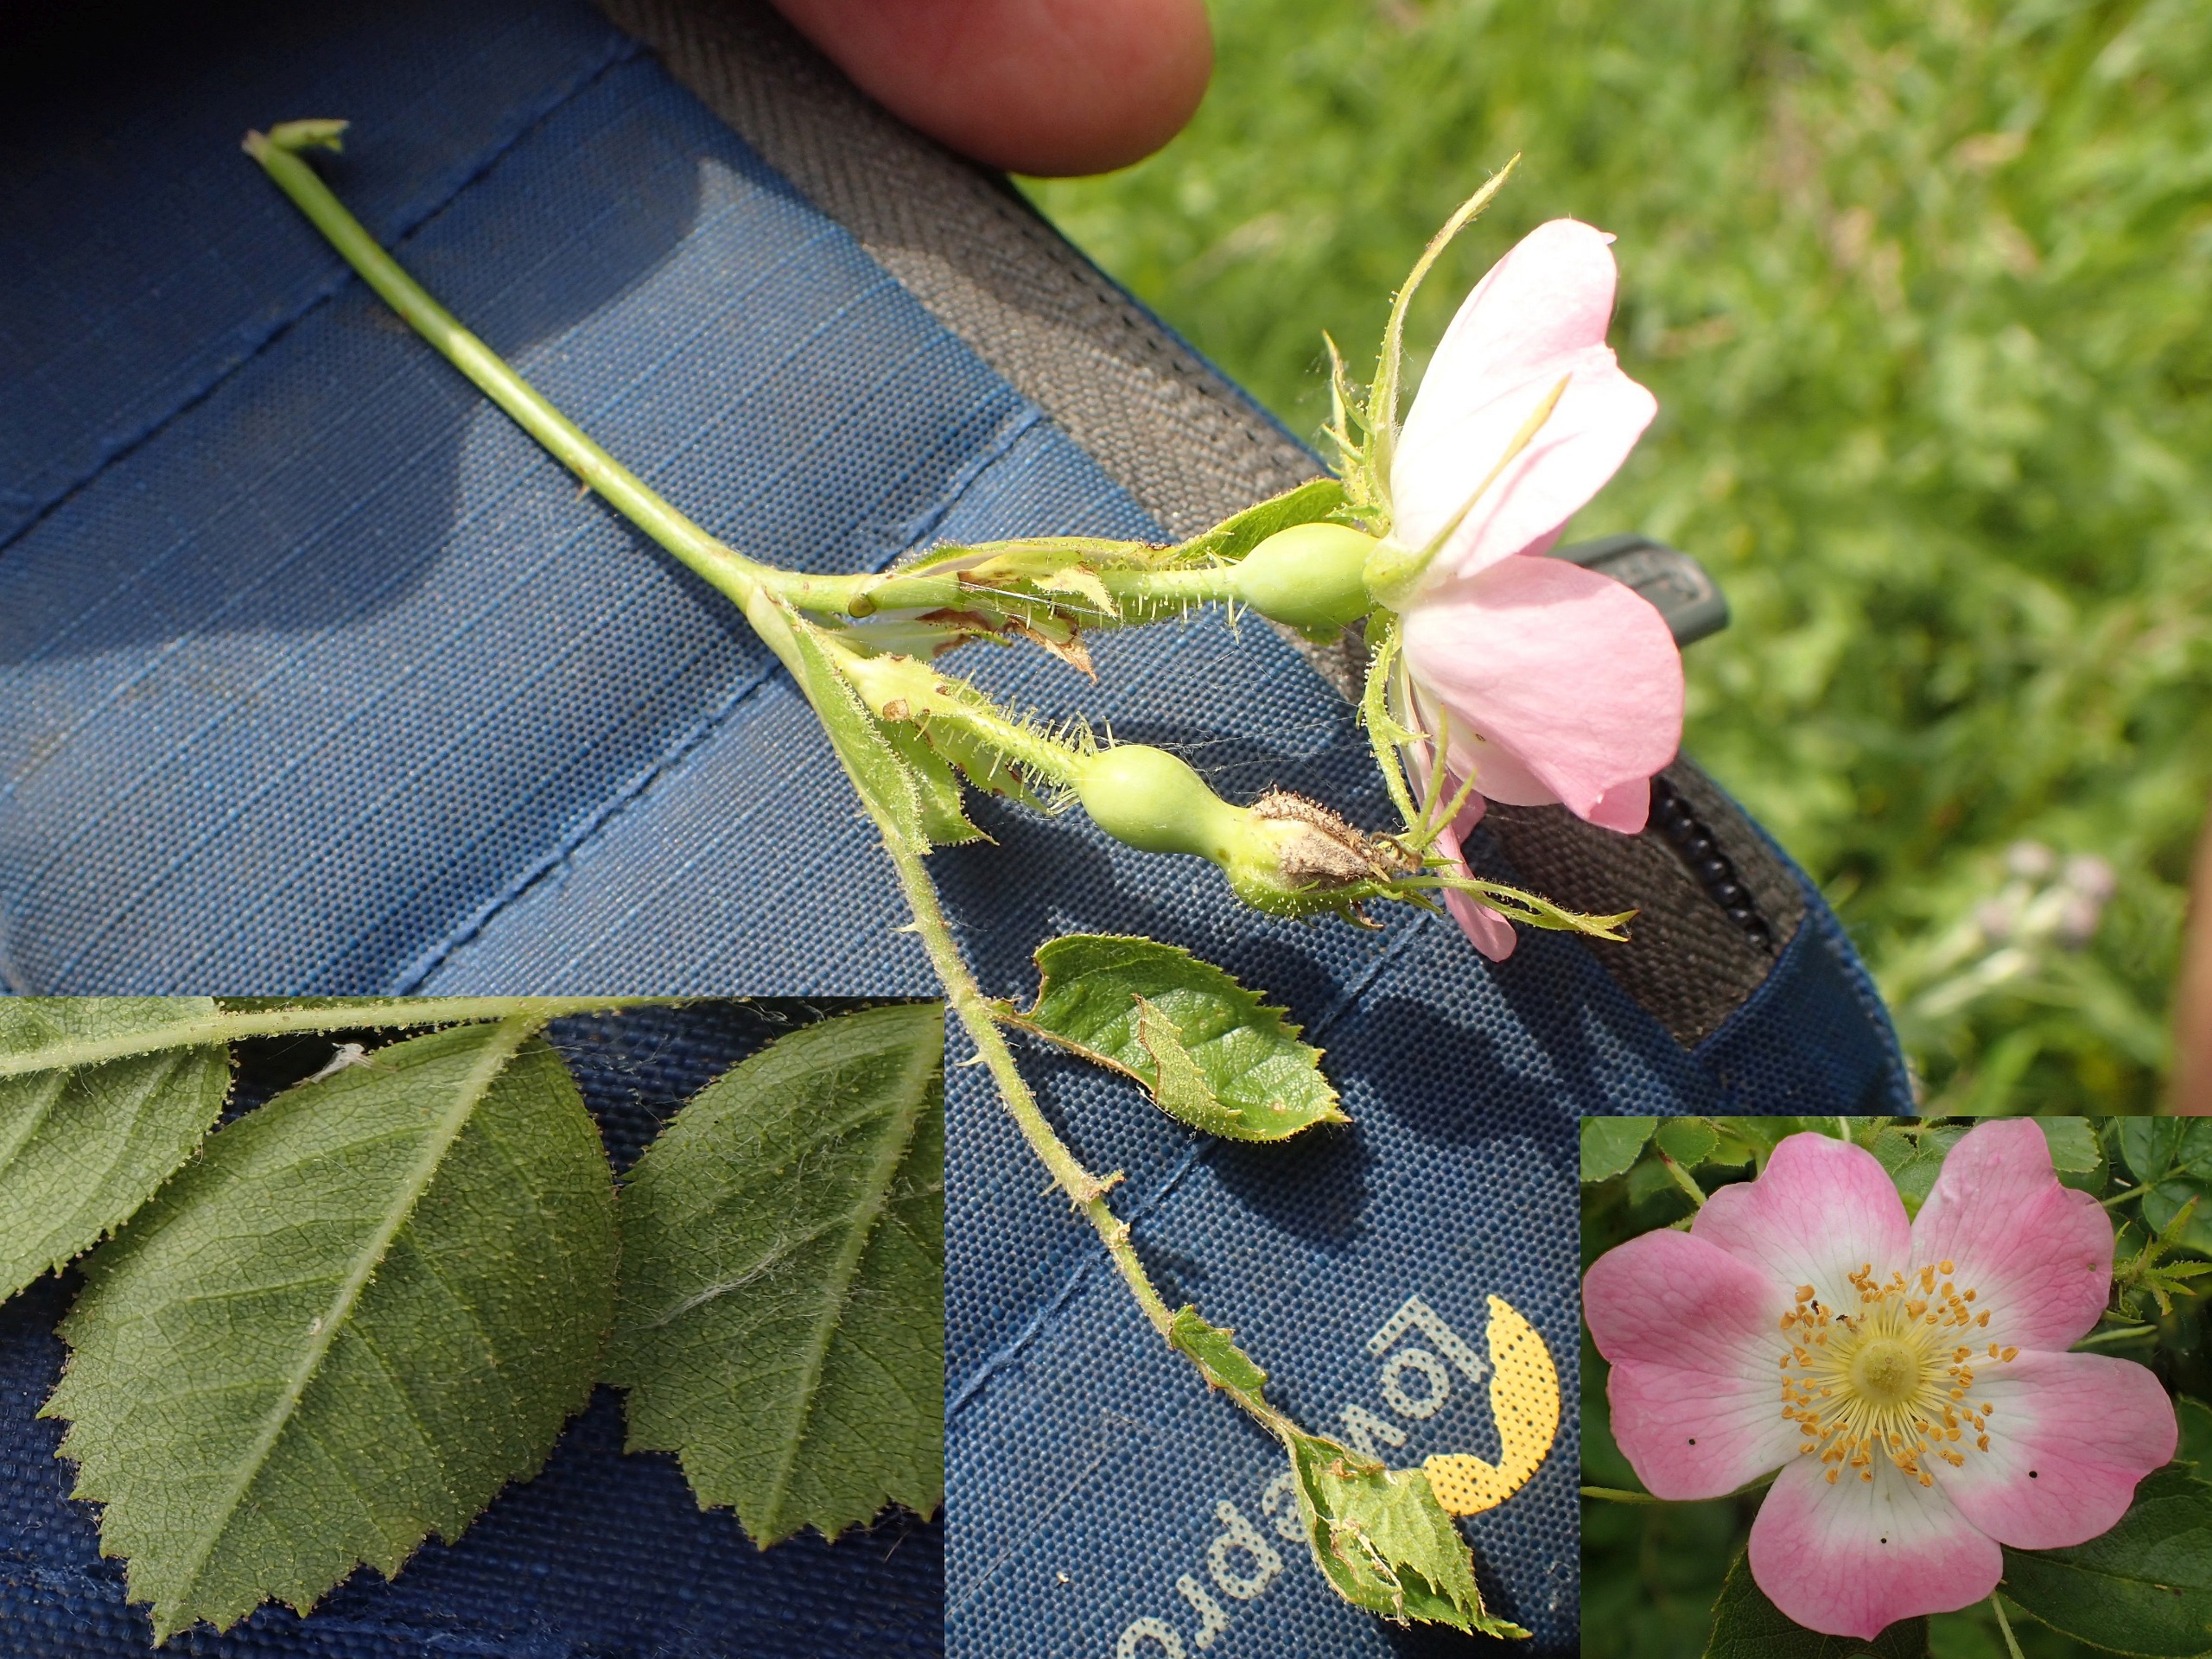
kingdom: Plantae
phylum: Tracheophyta
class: Magnoliopsida
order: Rosales
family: Rosaceae
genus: Rosa
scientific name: Rosa rubiginosa
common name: Æble-rose
